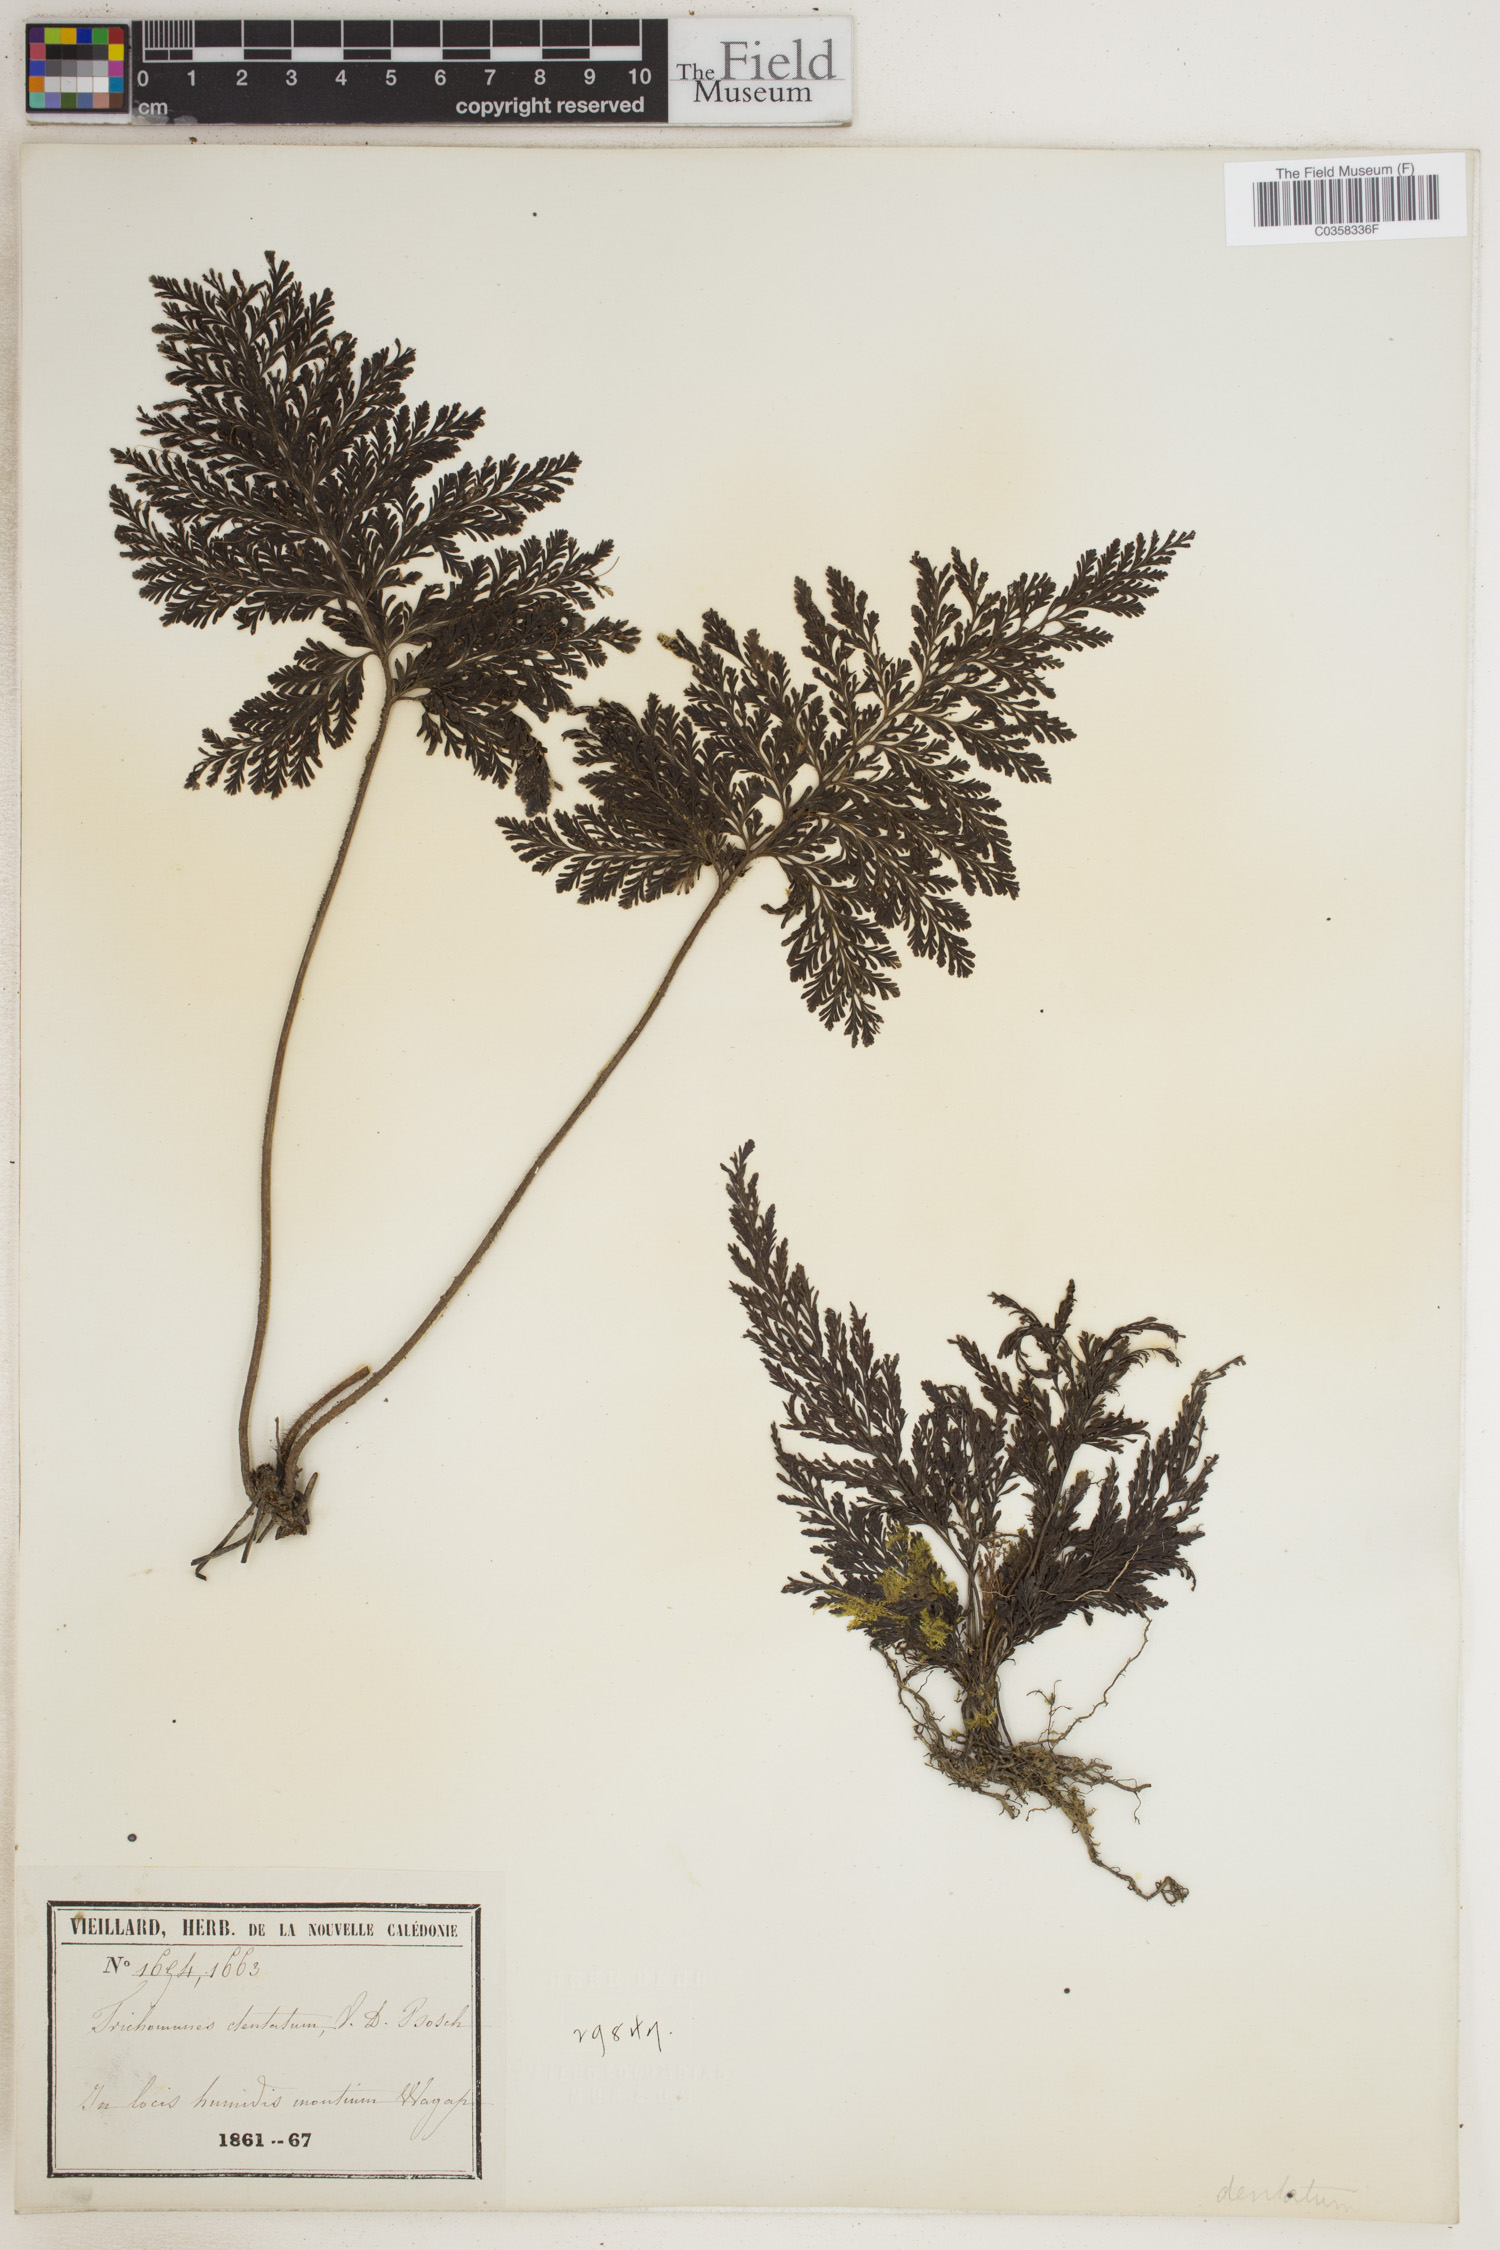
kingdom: Plantae
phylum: Tracheophyta
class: Polypodiopsida
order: Hymenophyllales
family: Hymenophyllaceae
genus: Abrodictyum
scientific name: Abrodictyum dentatum
